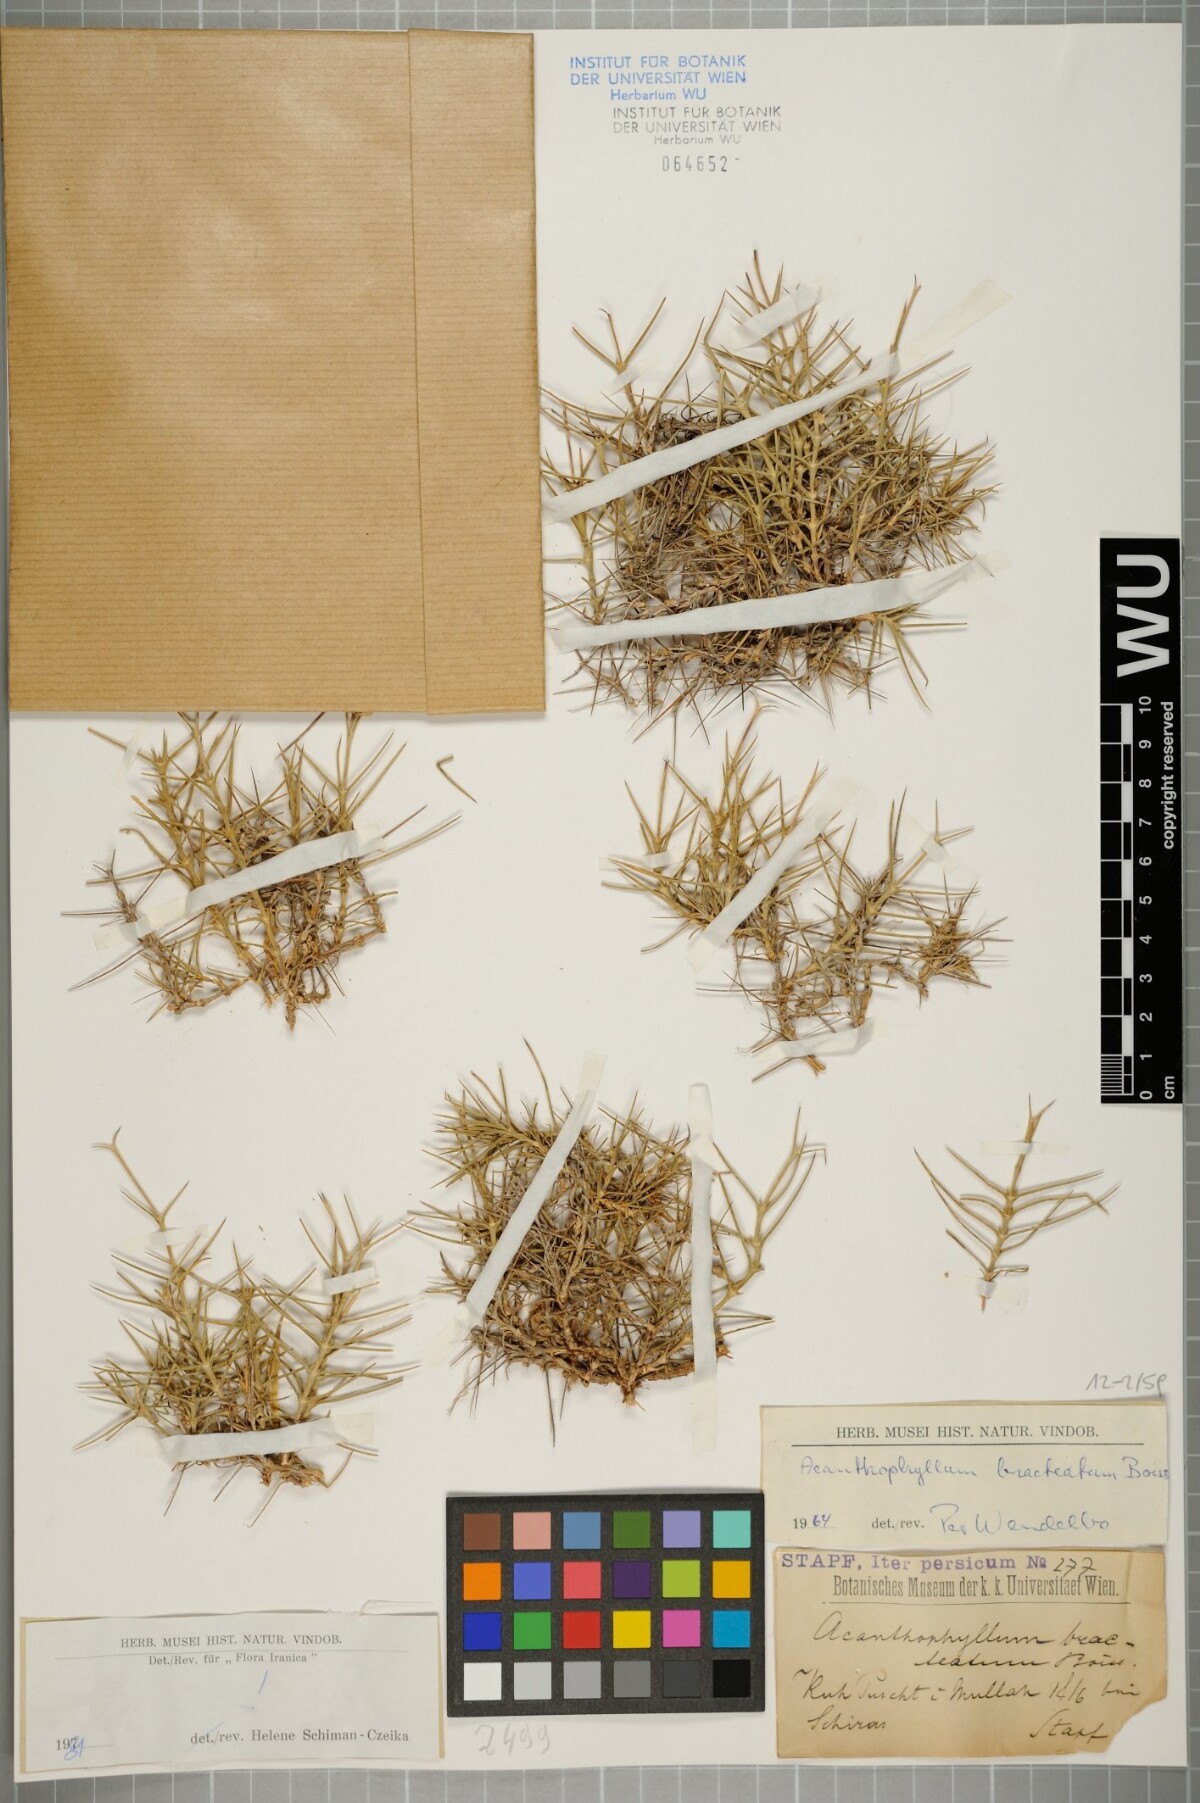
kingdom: Plantae
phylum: Tracheophyta
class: Magnoliopsida
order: Caryophyllales
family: Caryophyllaceae
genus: Acanthophyllum
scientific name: Acanthophyllum bracteatum
